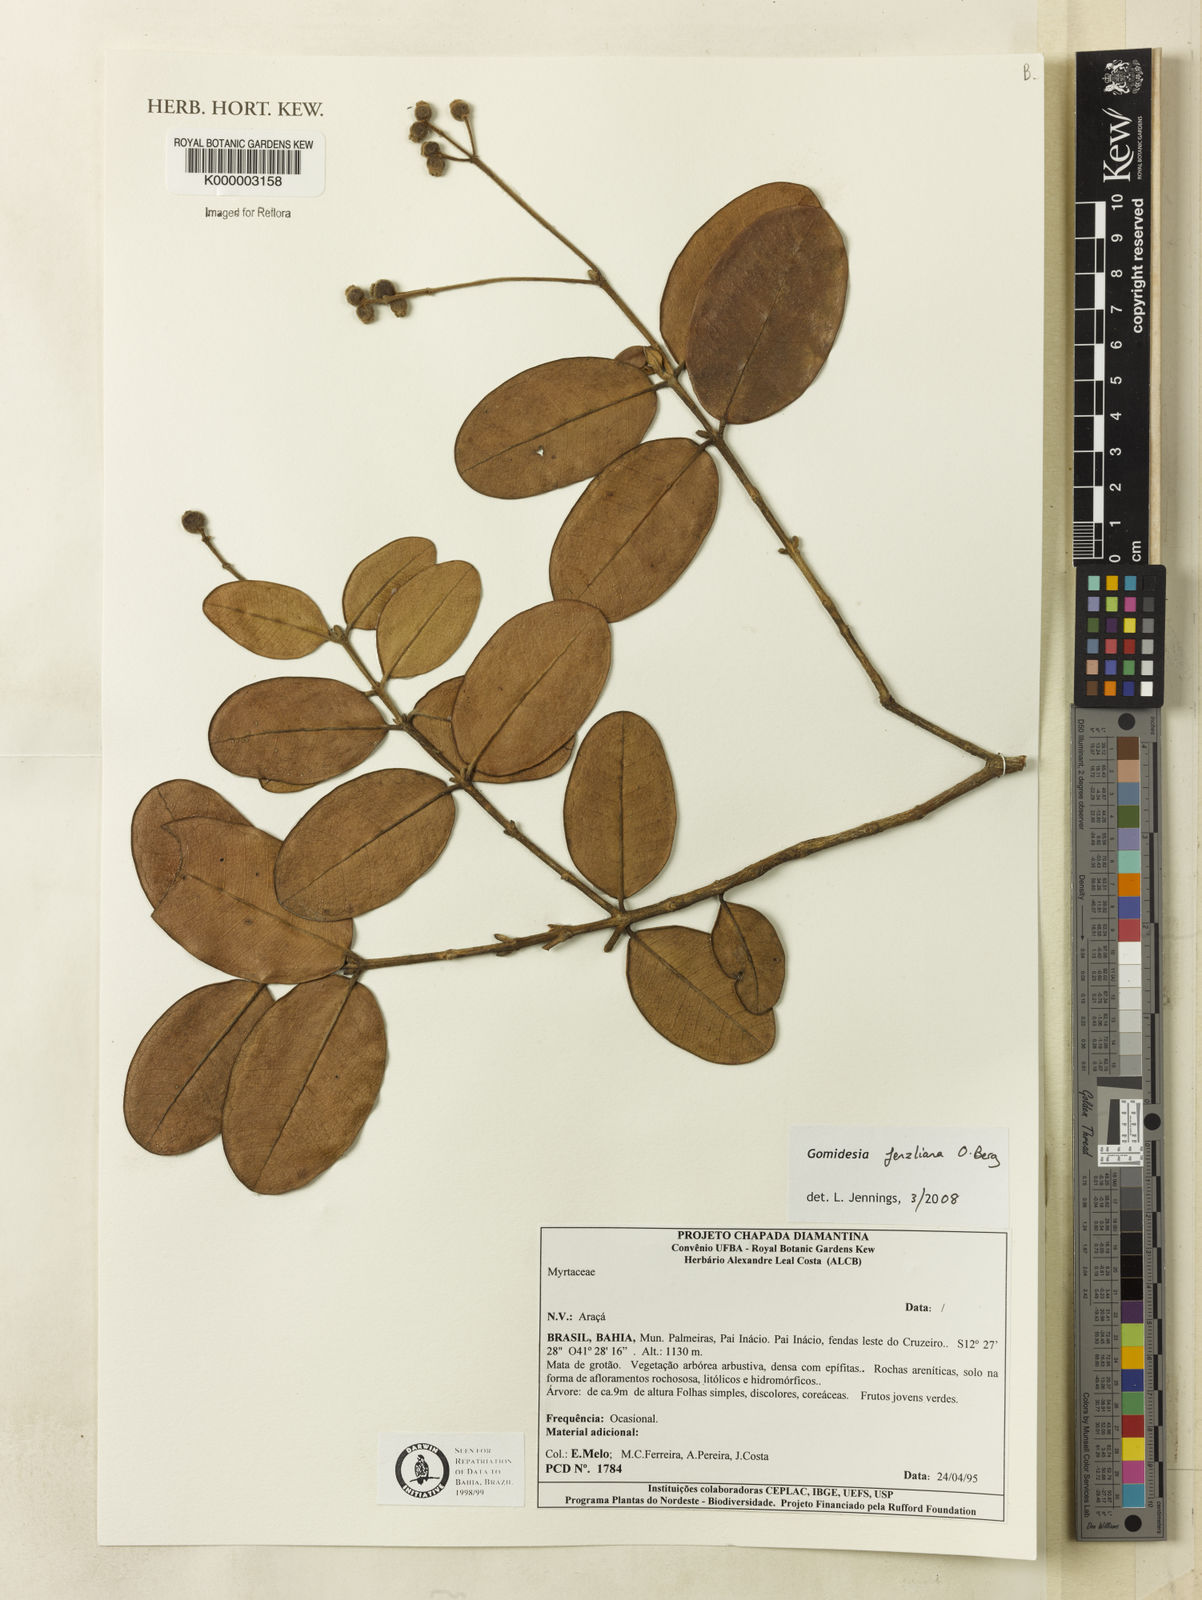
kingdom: Plantae
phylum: Tracheophyta
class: Magnoliopsida
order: Myrtales
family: Myrtaceae
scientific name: Myrtaceae
